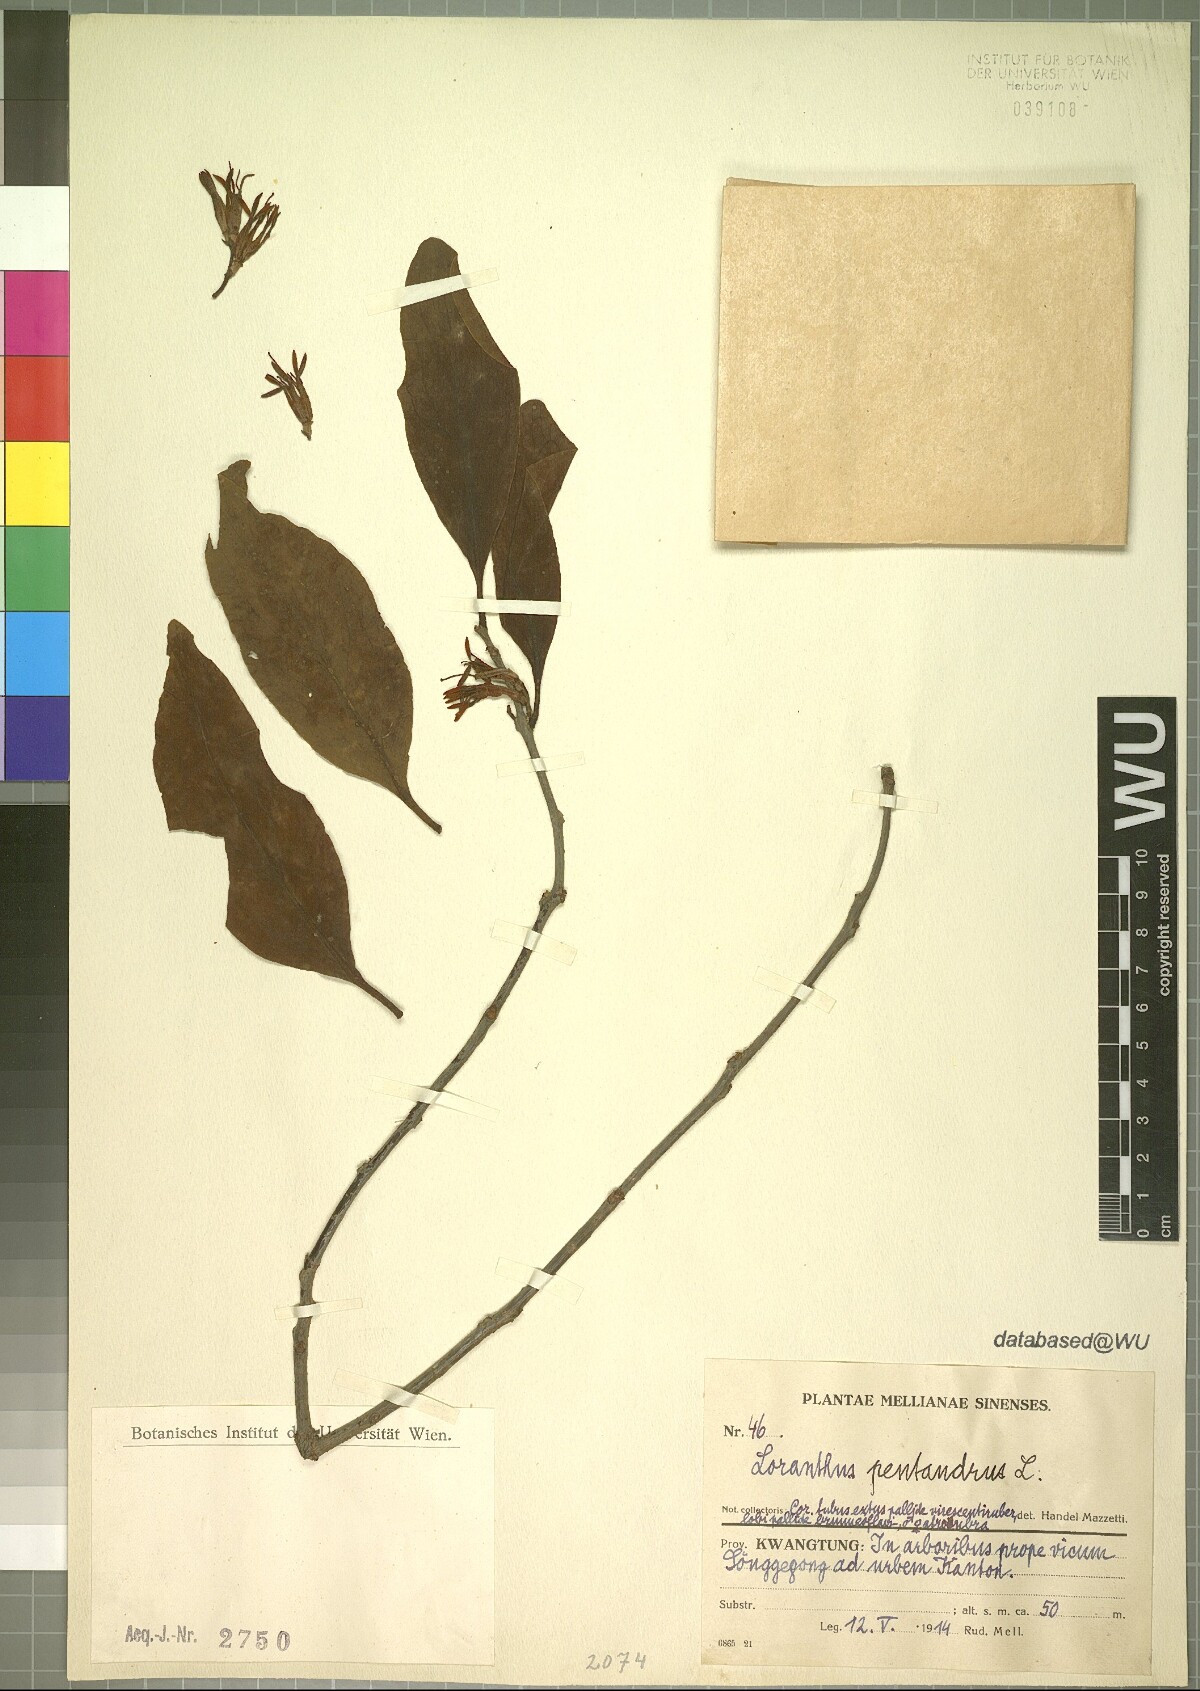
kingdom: Plantae
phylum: Tracheophyta
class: Magnoliopsida
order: Santalales
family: Loranthaceae
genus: Dendrophthoe
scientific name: Dendrophthoe pentandra
